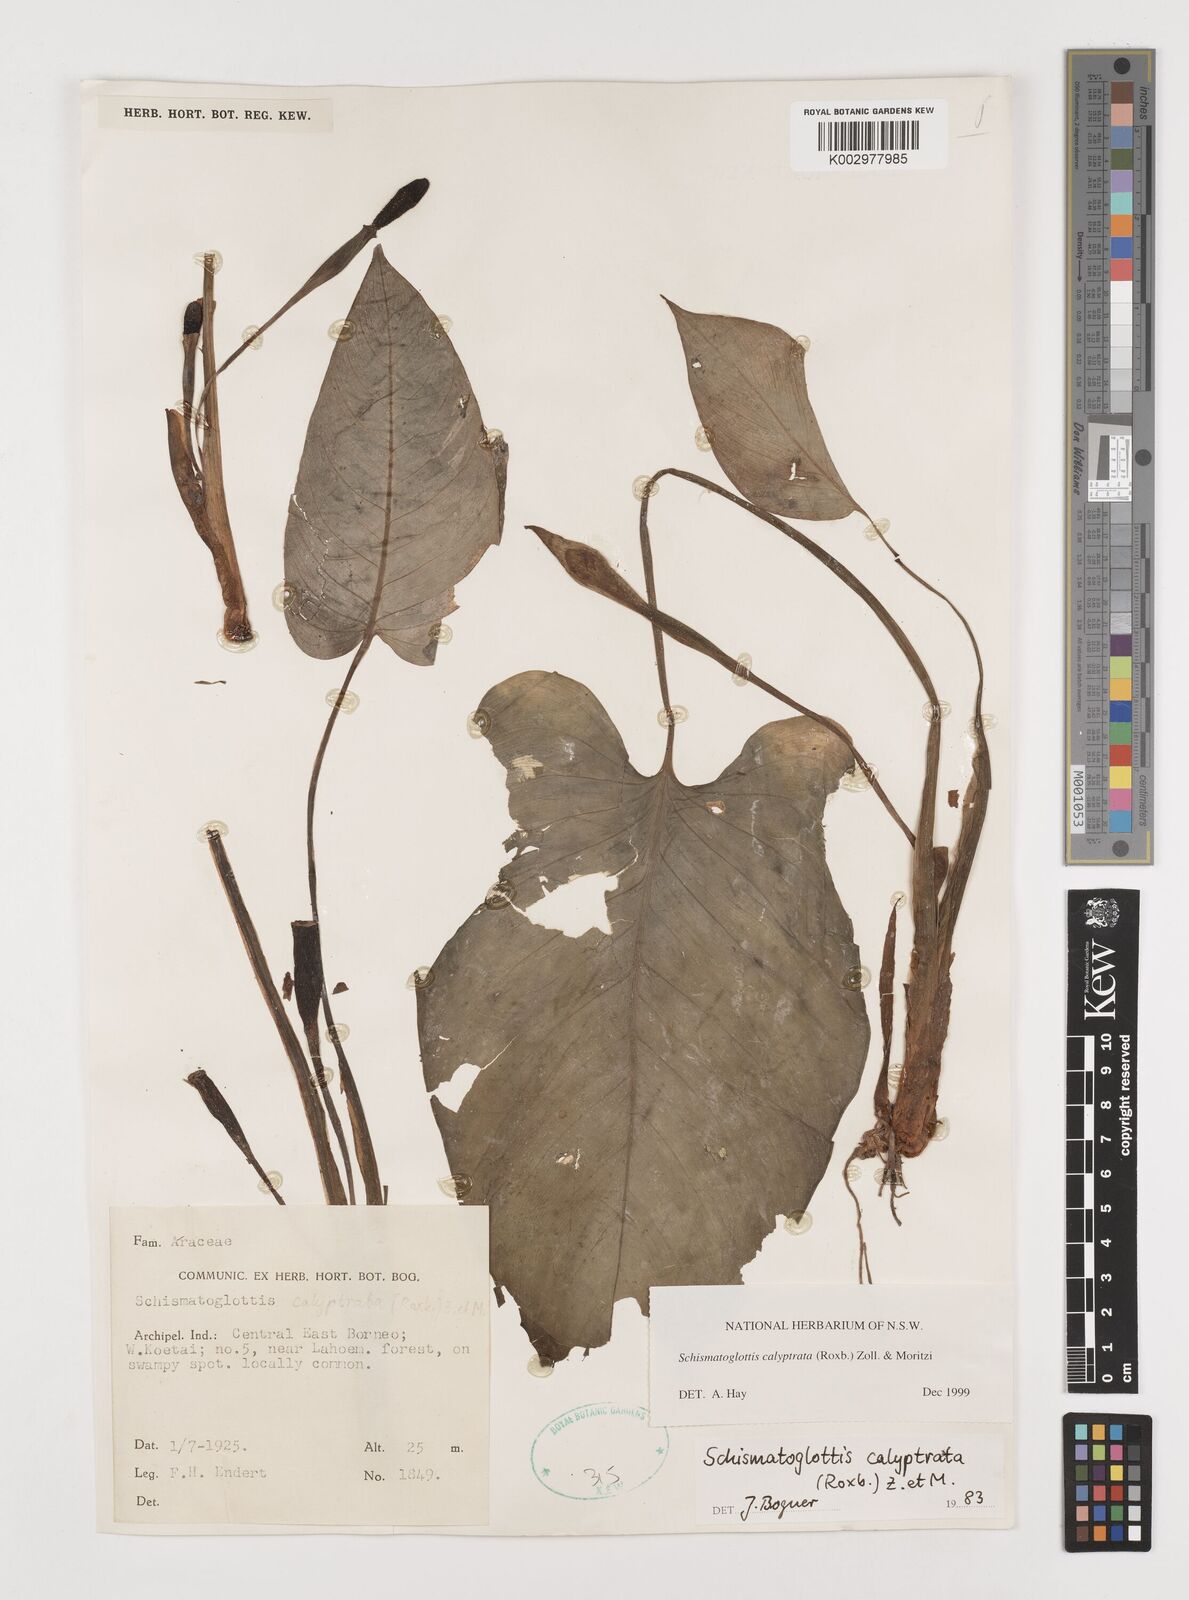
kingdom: Plantae
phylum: Tracheophyta
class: Liliopsida
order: Alismatales
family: Araceae
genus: Schismatoglottis
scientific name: Schismatoglottis calyptrata
